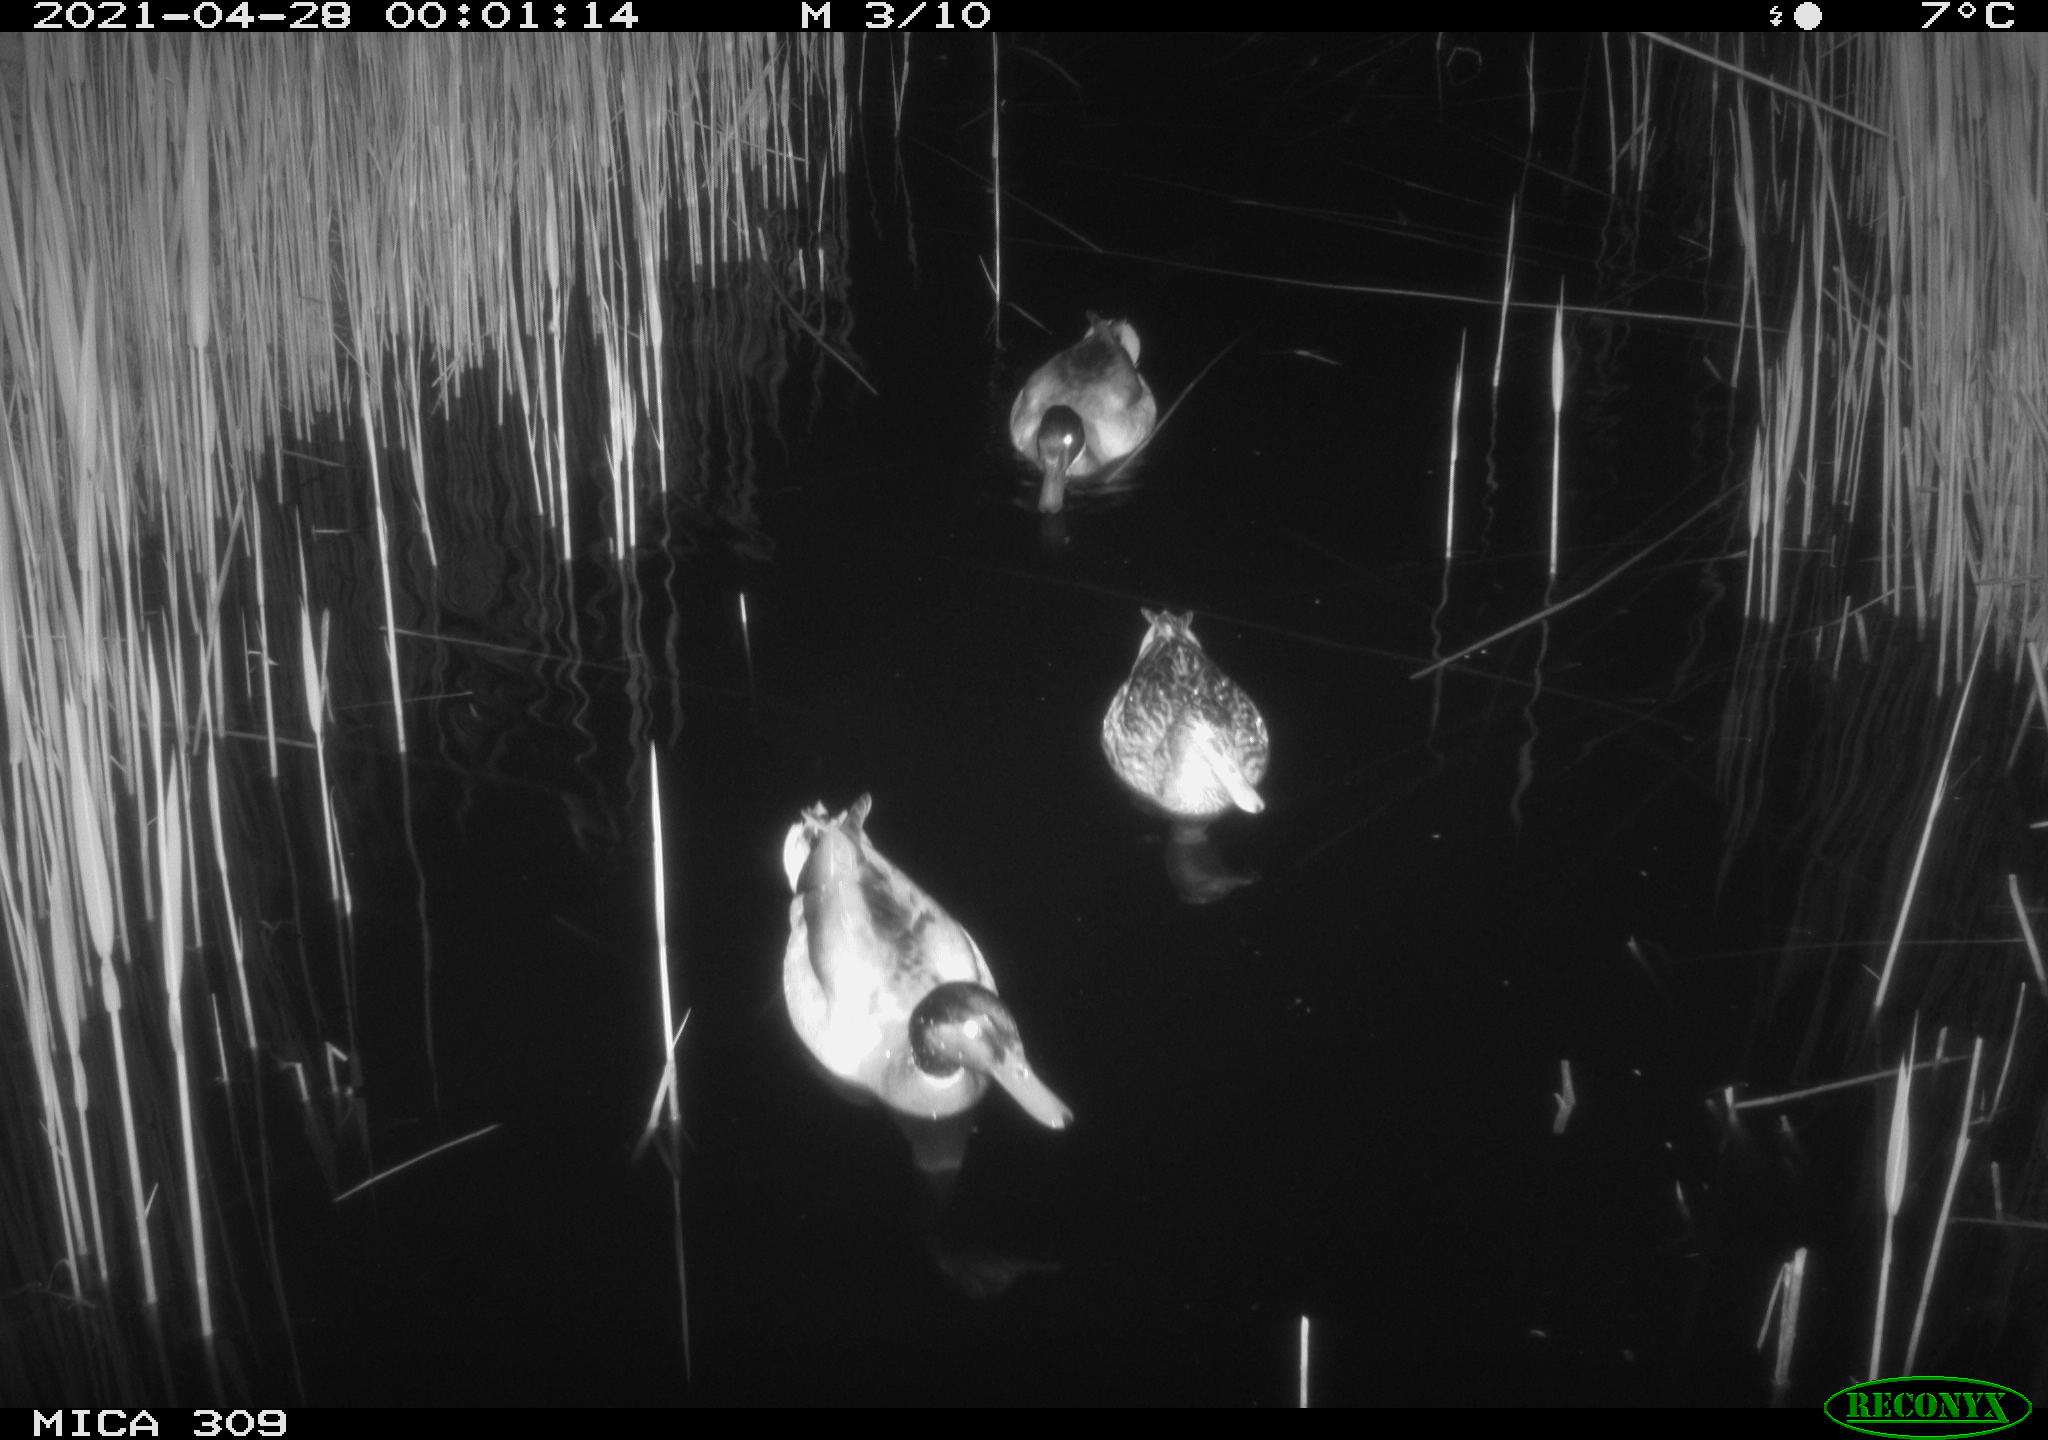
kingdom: Animalia
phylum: Chordata
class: Aves
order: Anseriformes
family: Anatidae
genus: Anas
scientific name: Anas platyrhynchos
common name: Mallard
